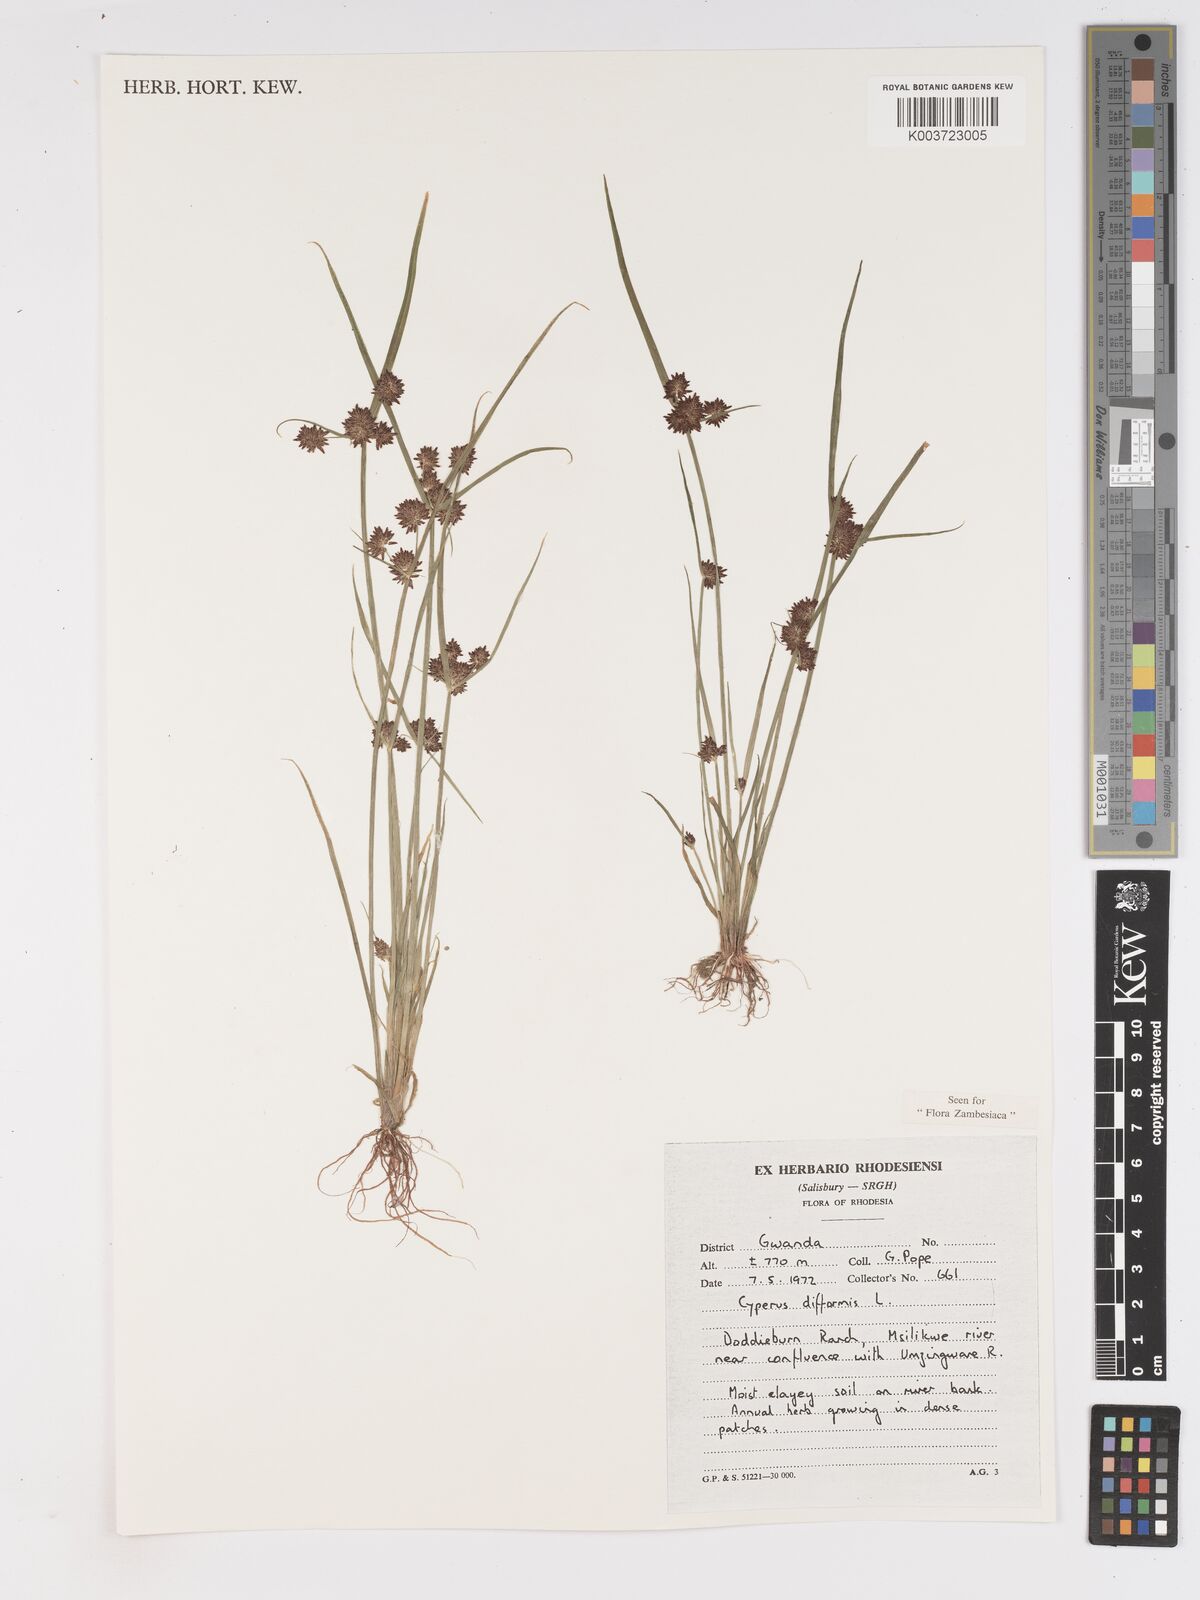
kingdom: Plantae
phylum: Tracheophyta
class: Liliopsida
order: Poales
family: Cyperaceae
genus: Cyperus
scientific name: Cyperus difformis
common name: Variable flatsedge
